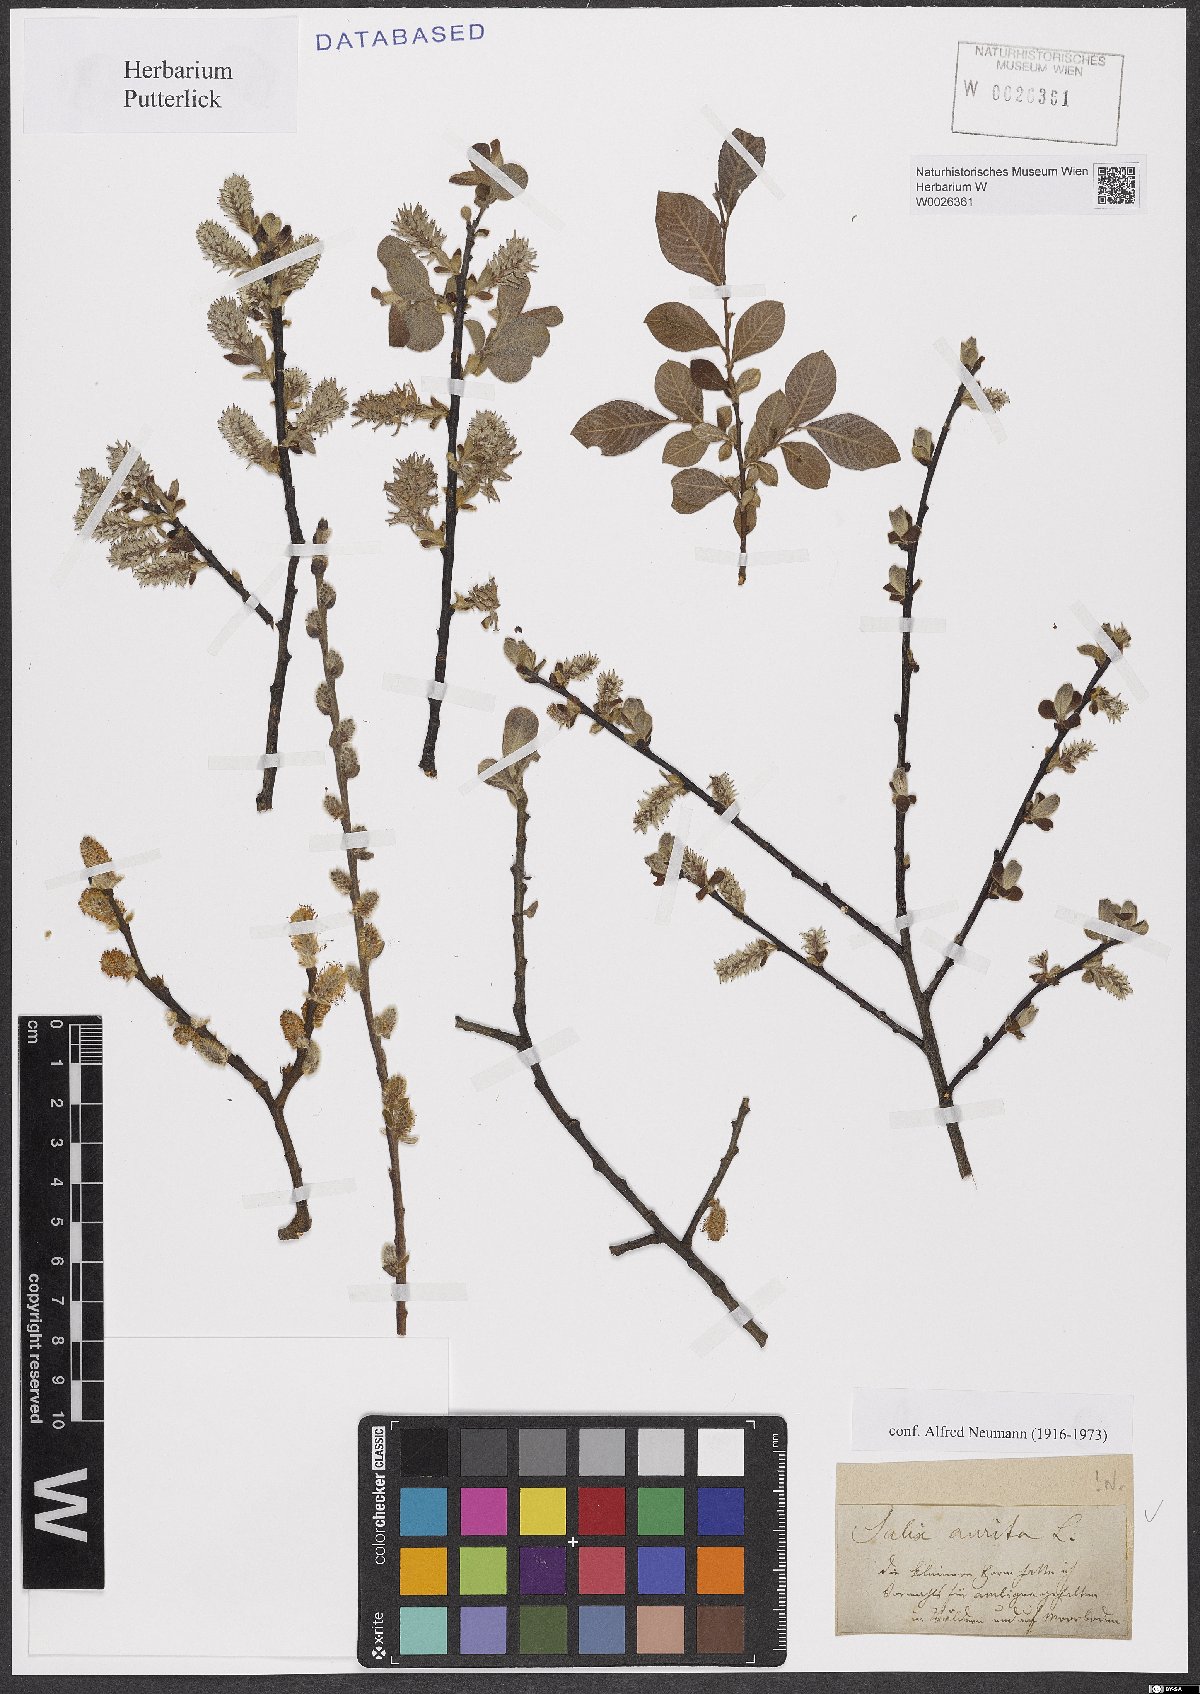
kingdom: Plantae
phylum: Tracheophyta
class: Magnoliopsida
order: Malpighiales
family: Salicaceae
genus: Salix
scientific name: Salix aurita
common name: Eared willow
